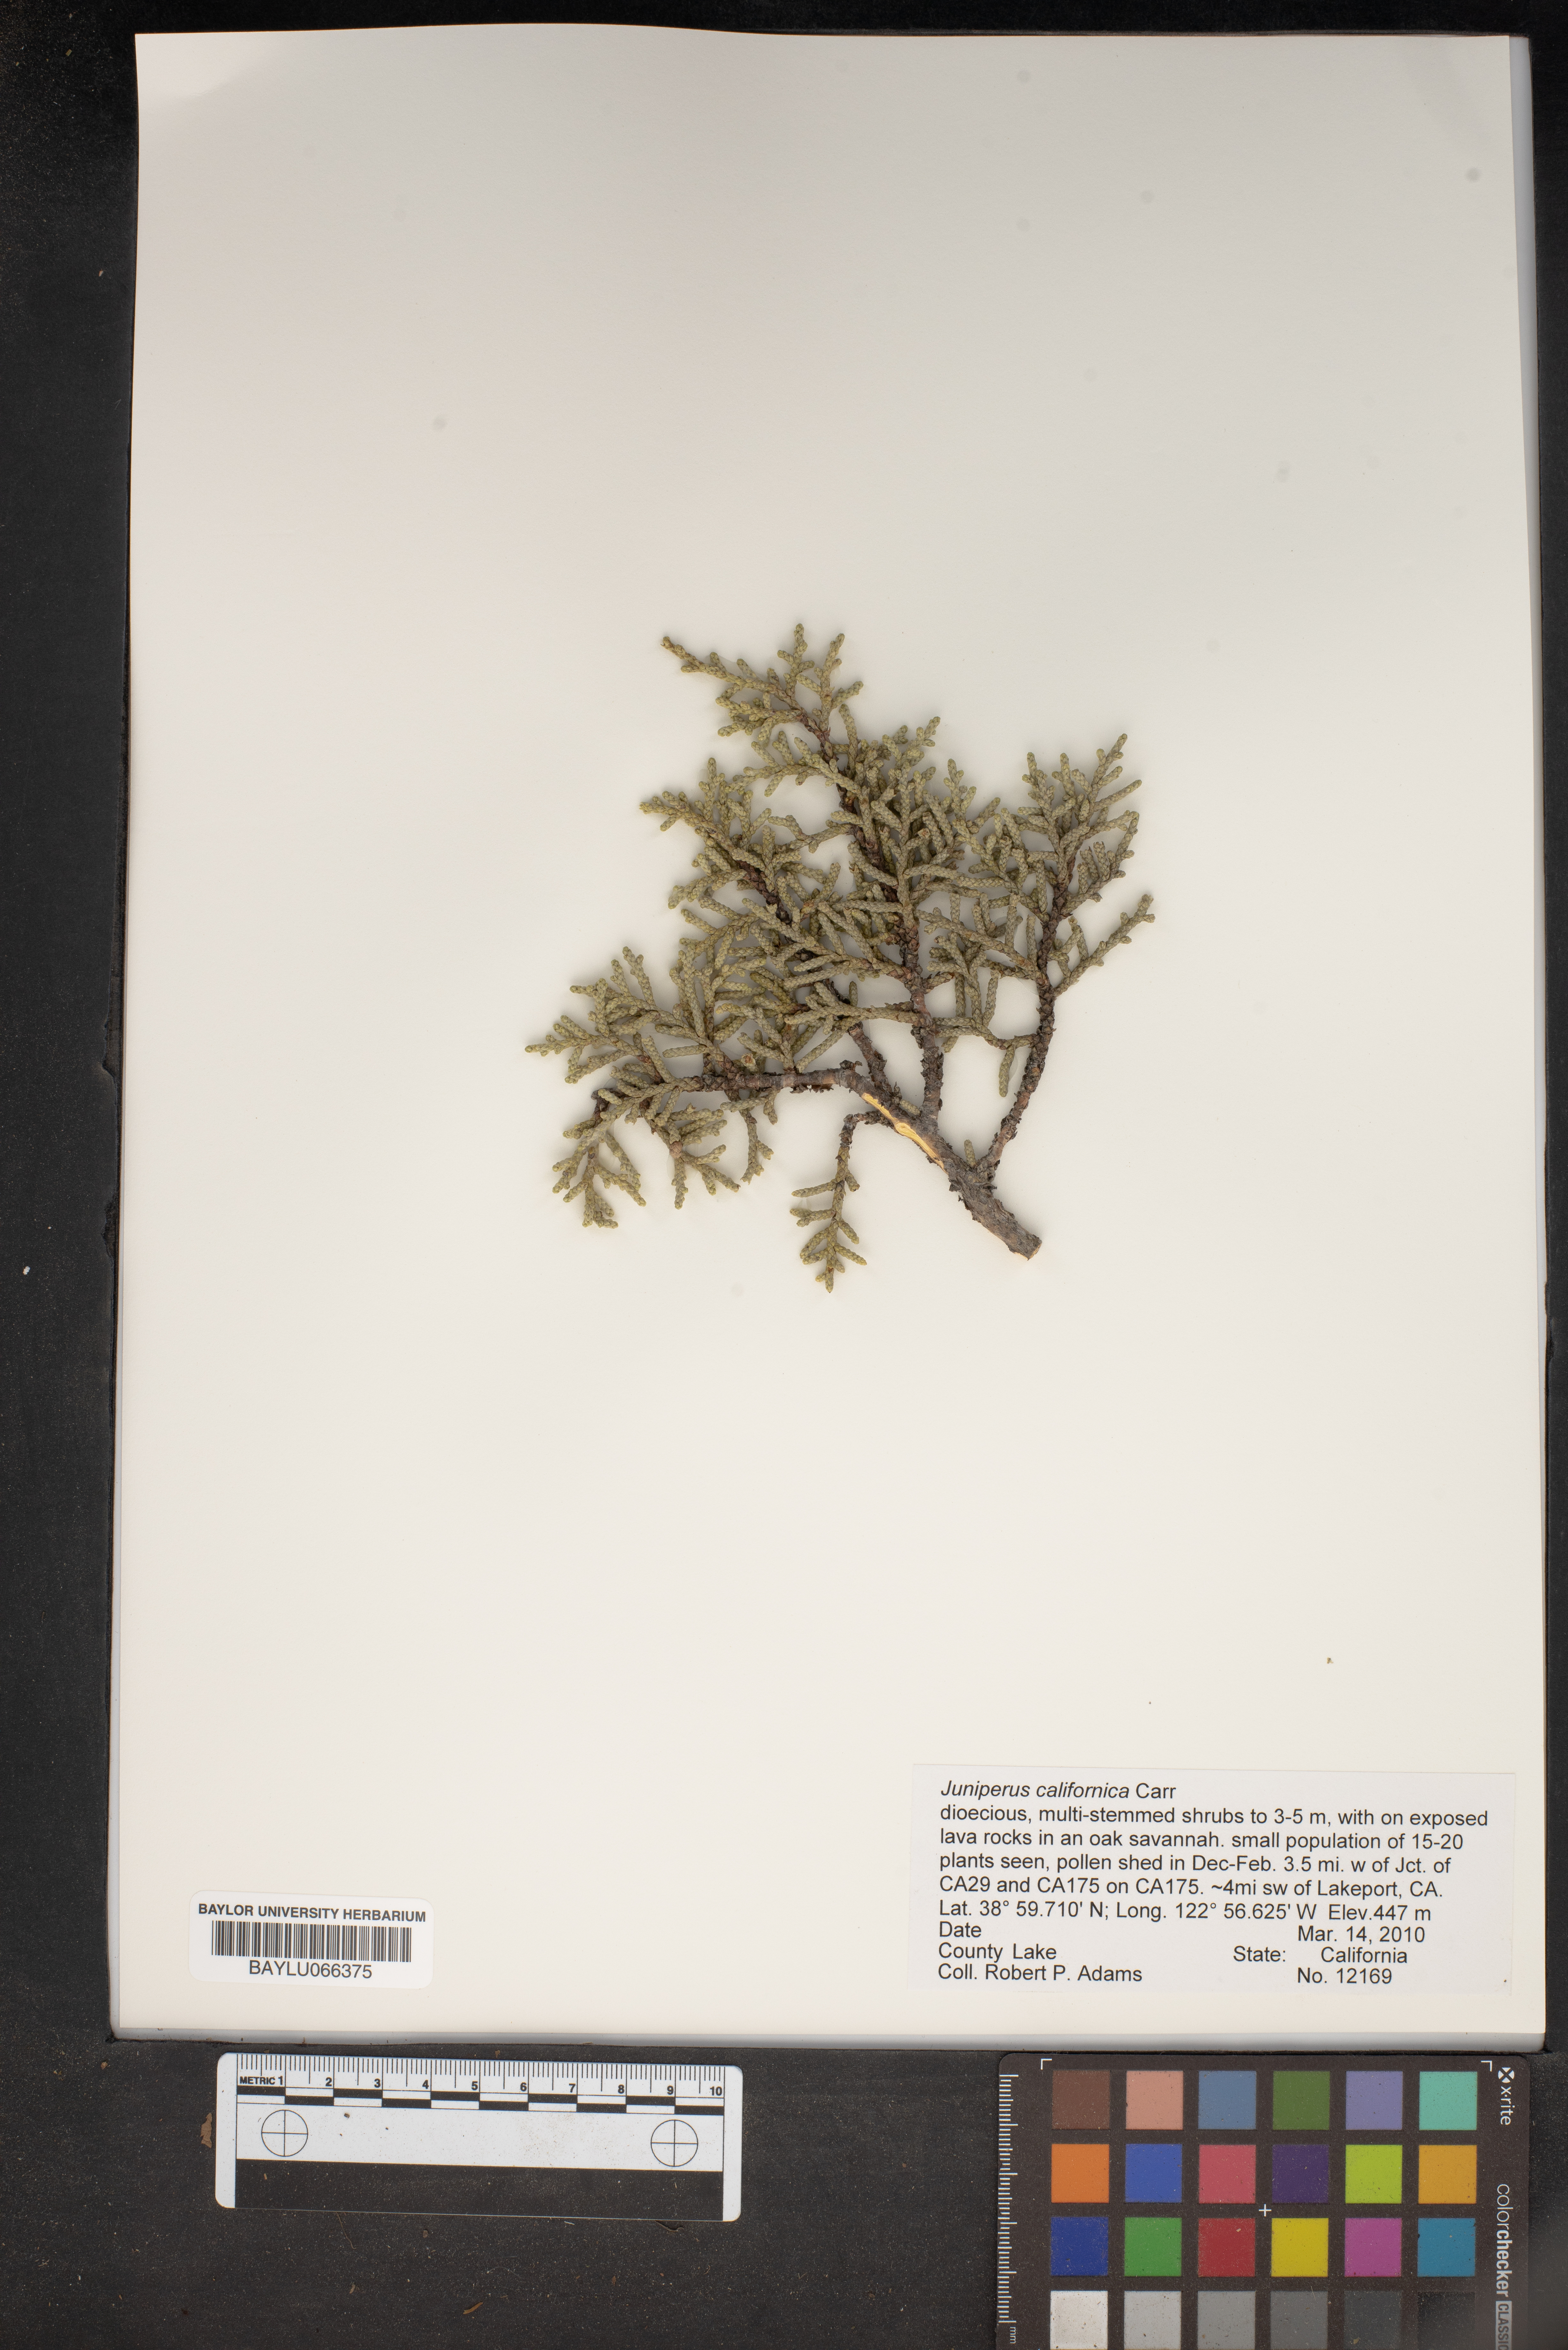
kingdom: Plantae
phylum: Tracheophyta
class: Pinopsida
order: Pinales
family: Cupressaceae
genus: Juniperus
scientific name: Juniperus californica
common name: California juniper
